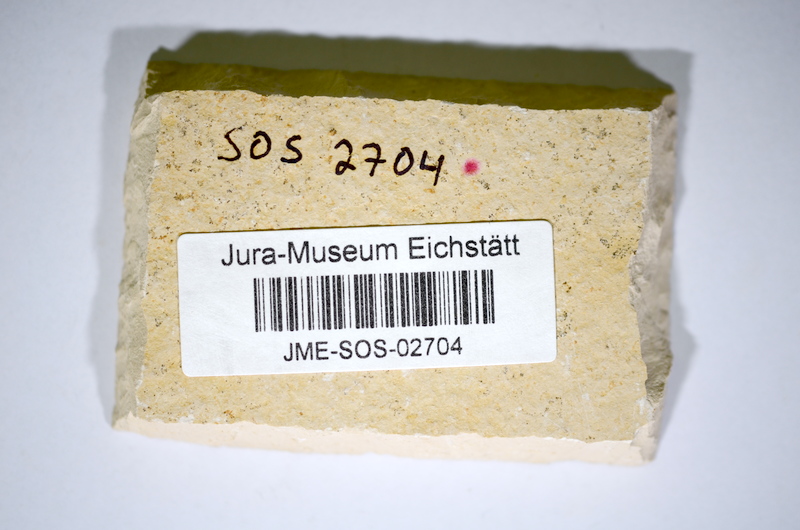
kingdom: Animalia
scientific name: Animalia
